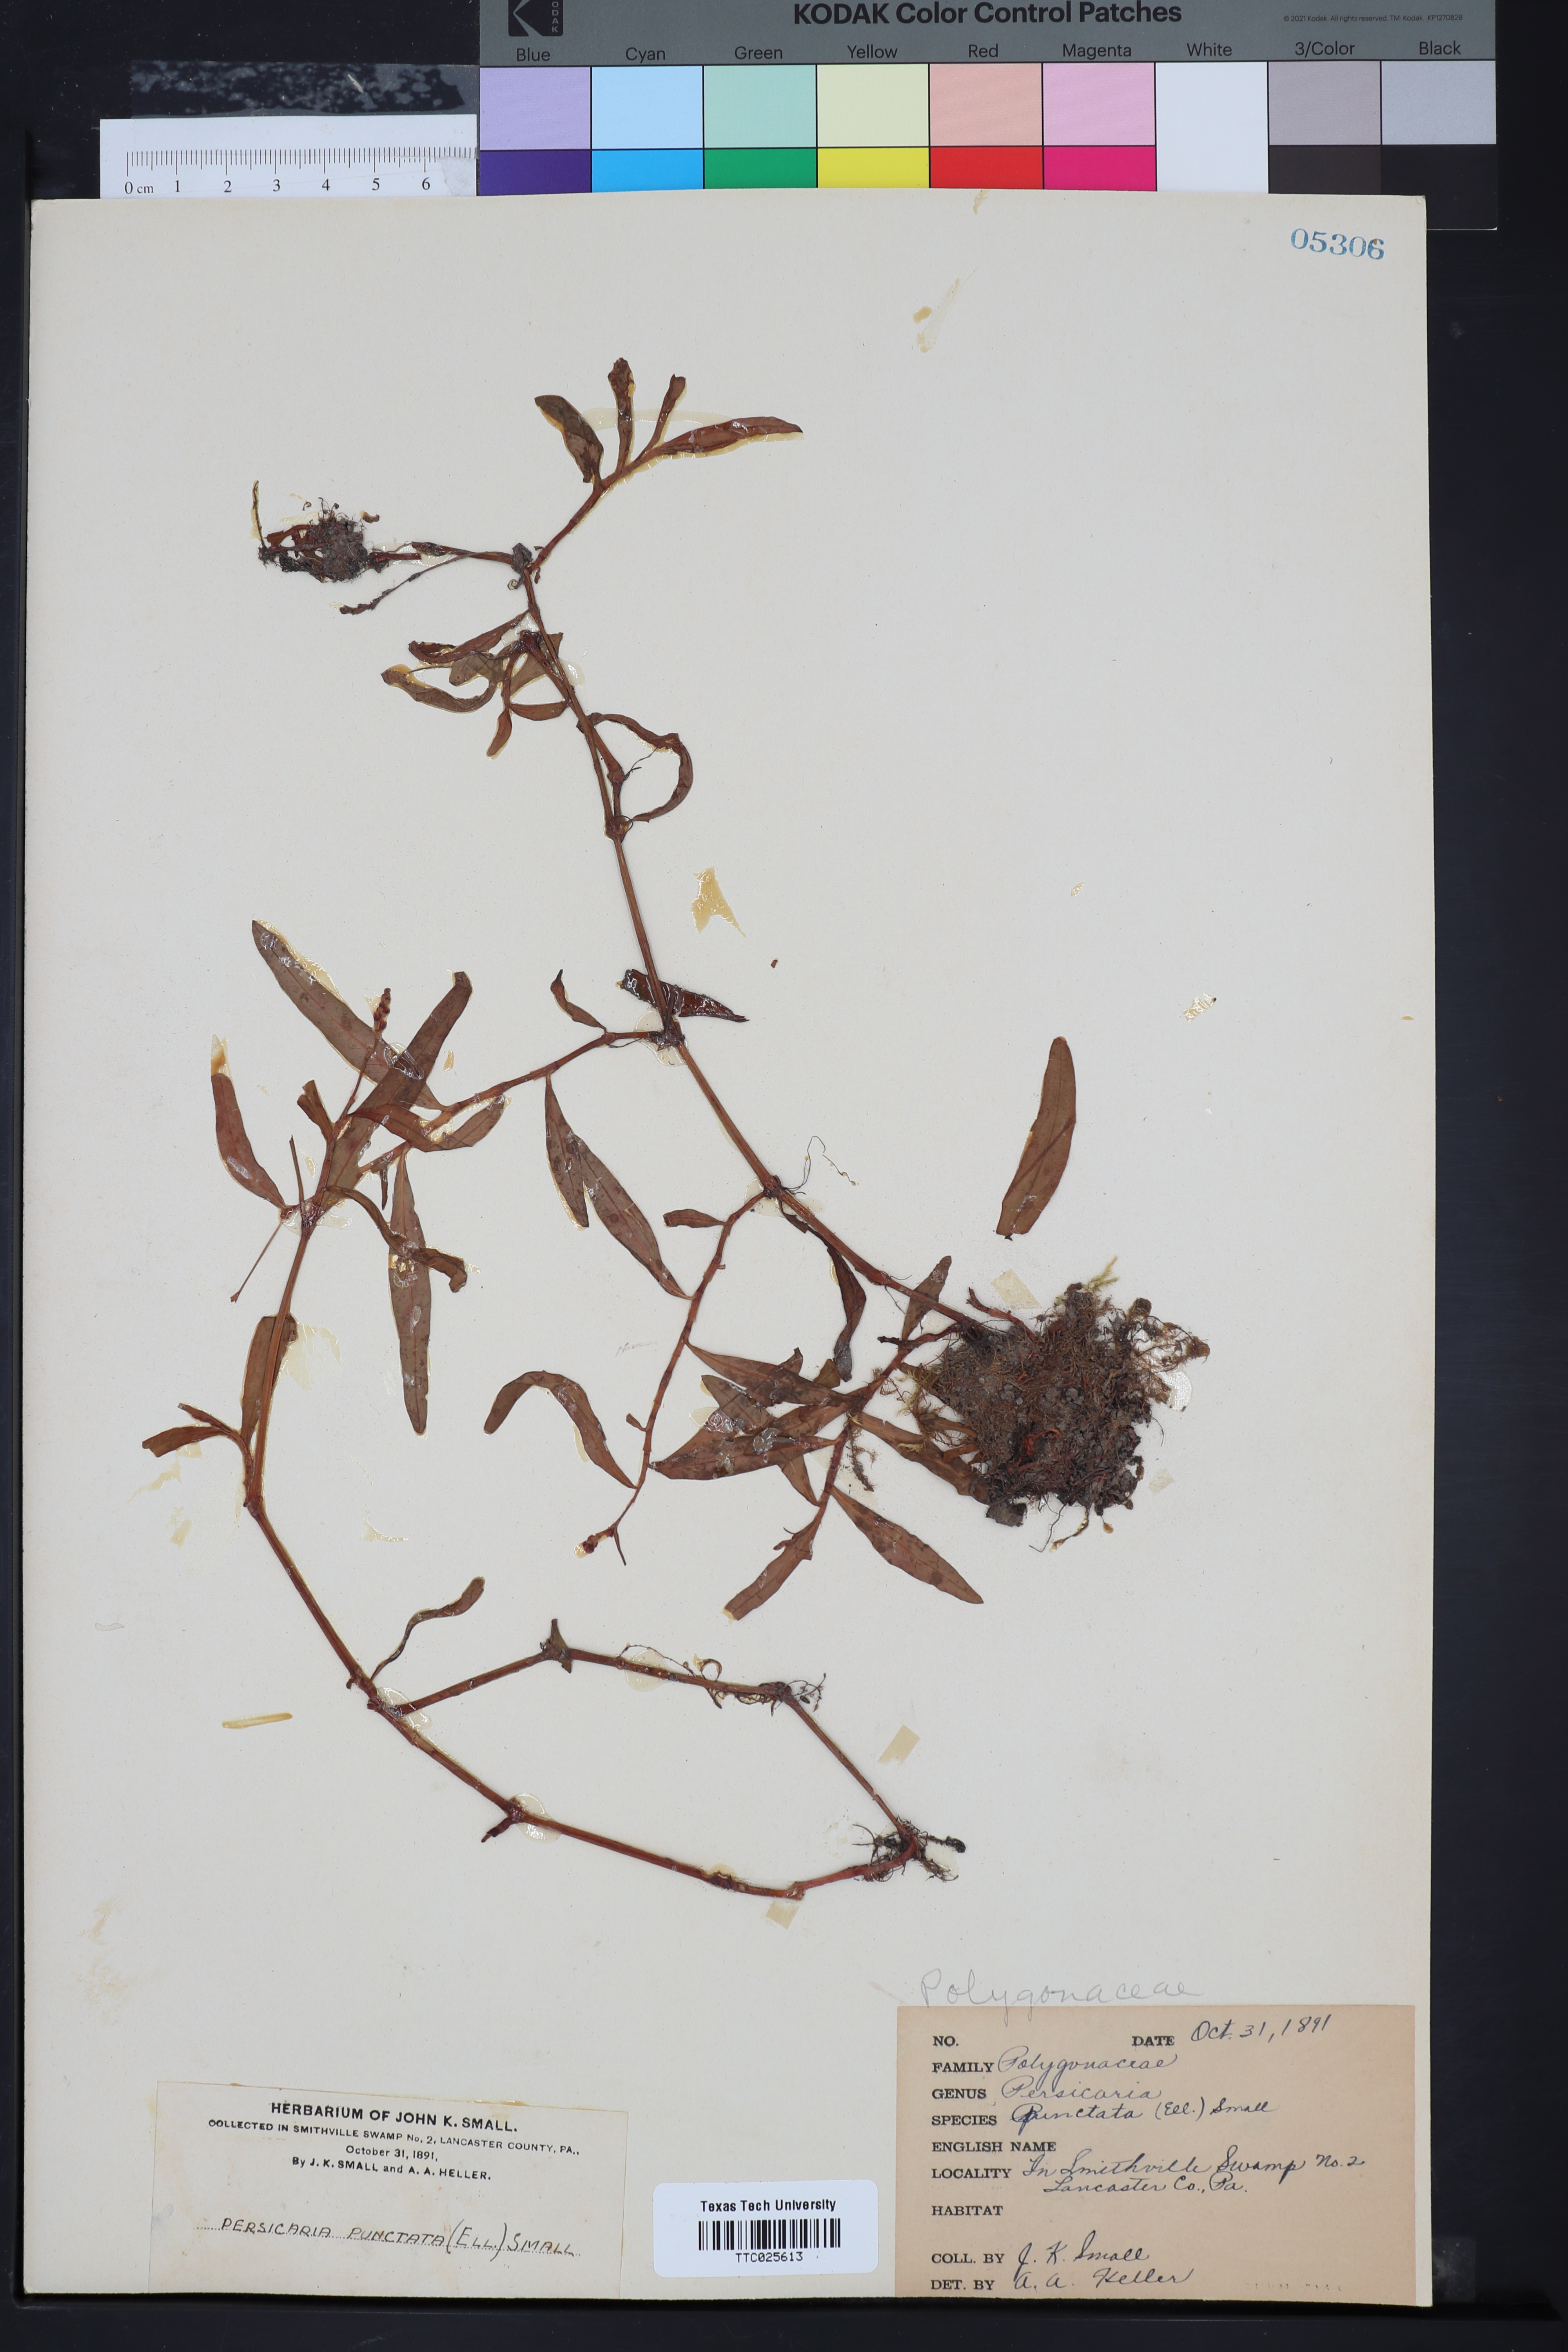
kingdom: Plantae
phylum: Tracheophyta
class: Magnoliopsida
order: Caryophyllales
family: Polygonaceae
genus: Persicaria
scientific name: Persicaria punctata
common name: Dotted smartweed
